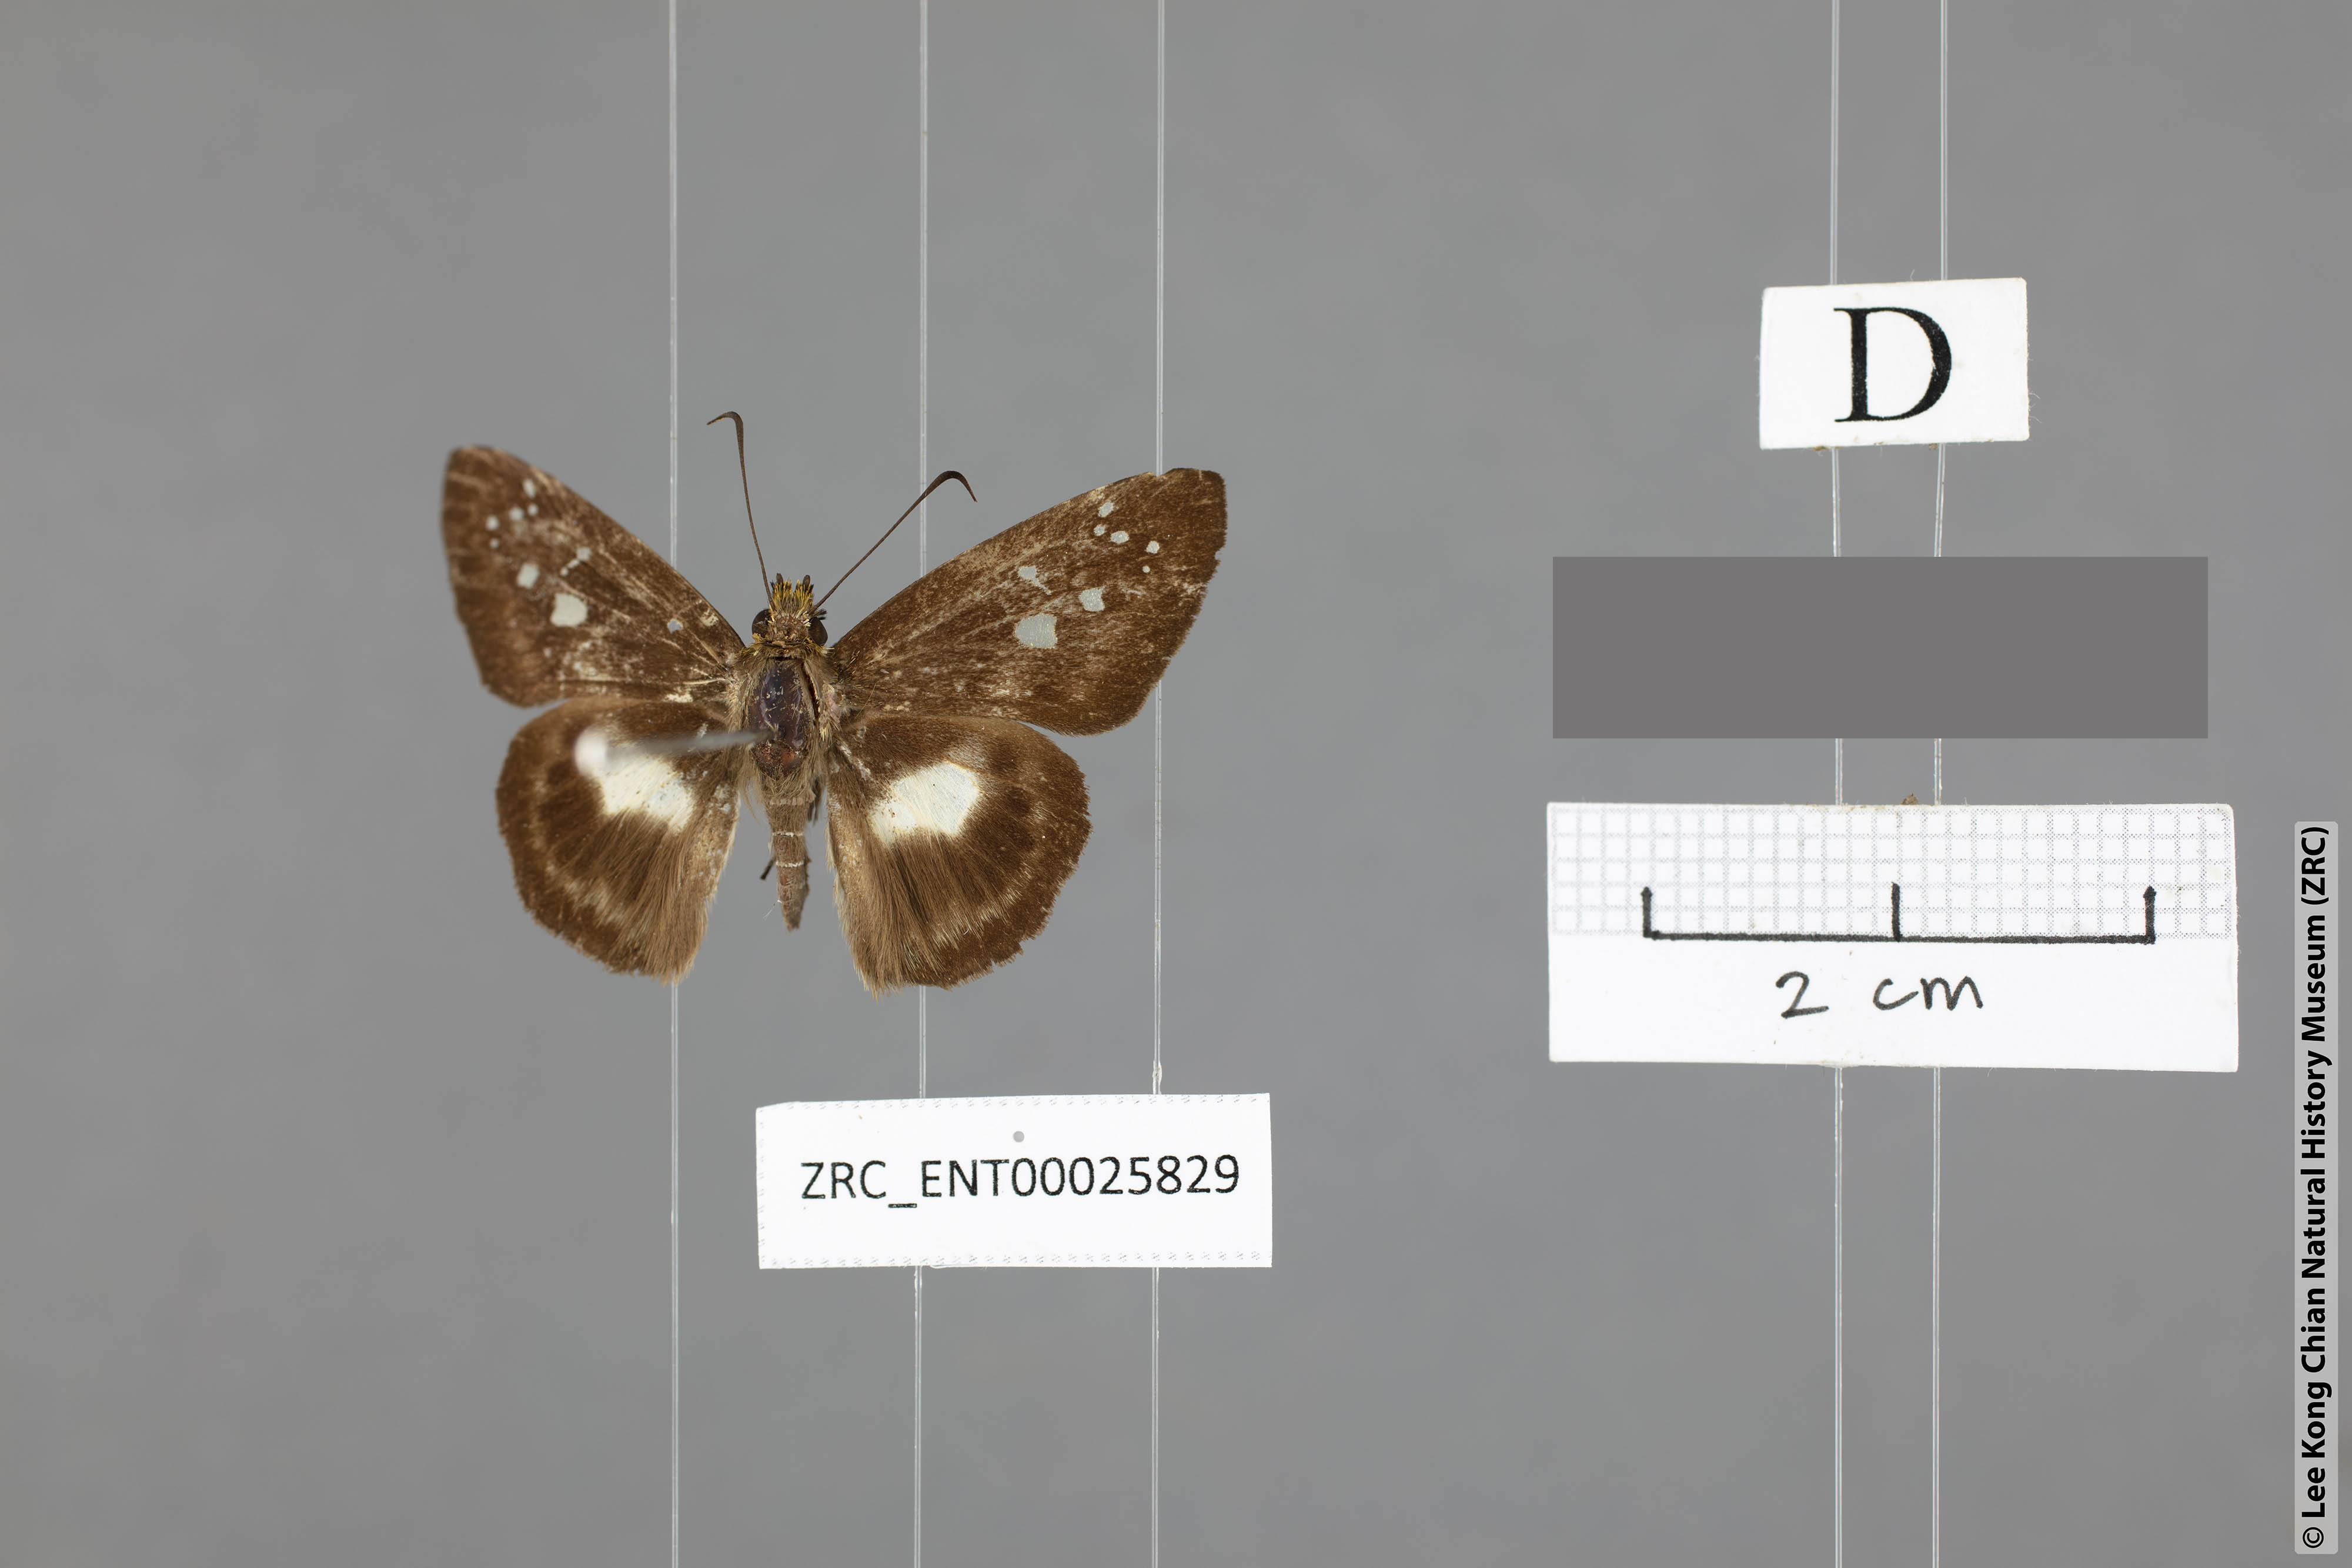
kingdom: Animalia
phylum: Arthropoda
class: Insecta
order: Lepidoptera
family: Hesperiidae
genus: Daimio
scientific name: Daimio
